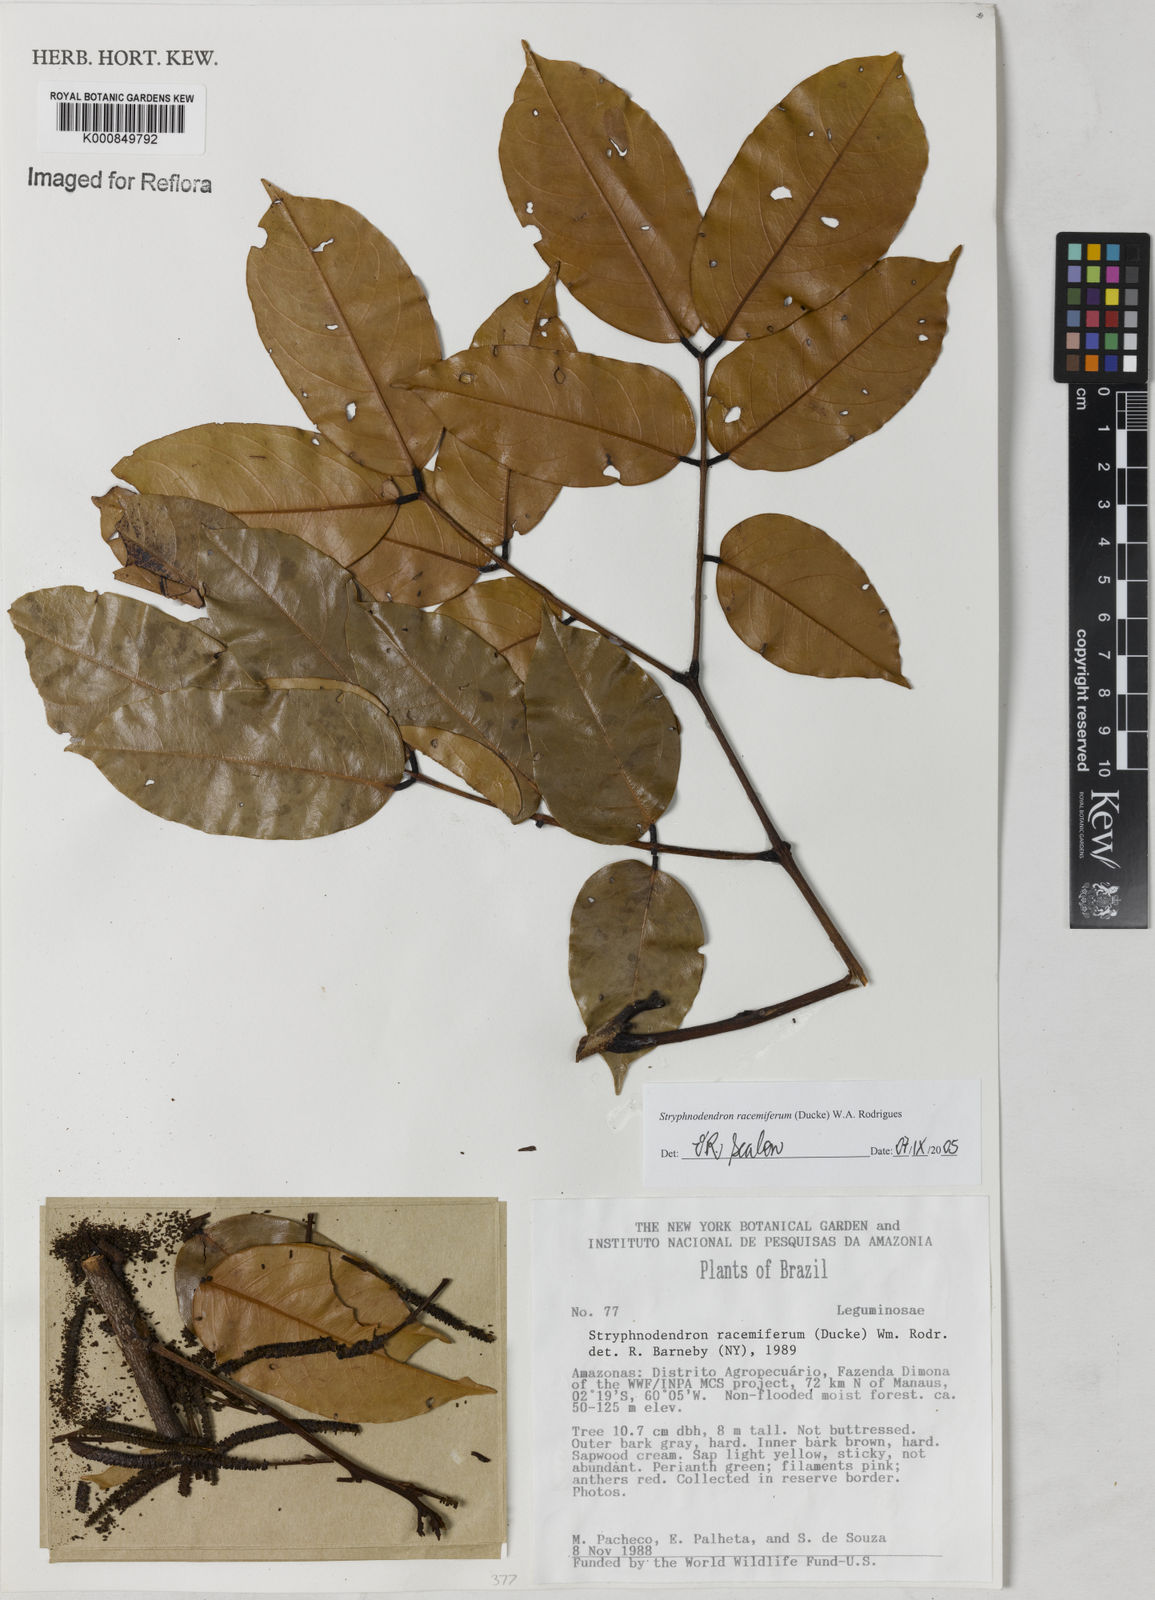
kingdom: Plantae
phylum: Tracheophyta
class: Magnoliopsida
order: Fabales
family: Fabaceae
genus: Stryphnodendron
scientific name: Stryphnodendron
